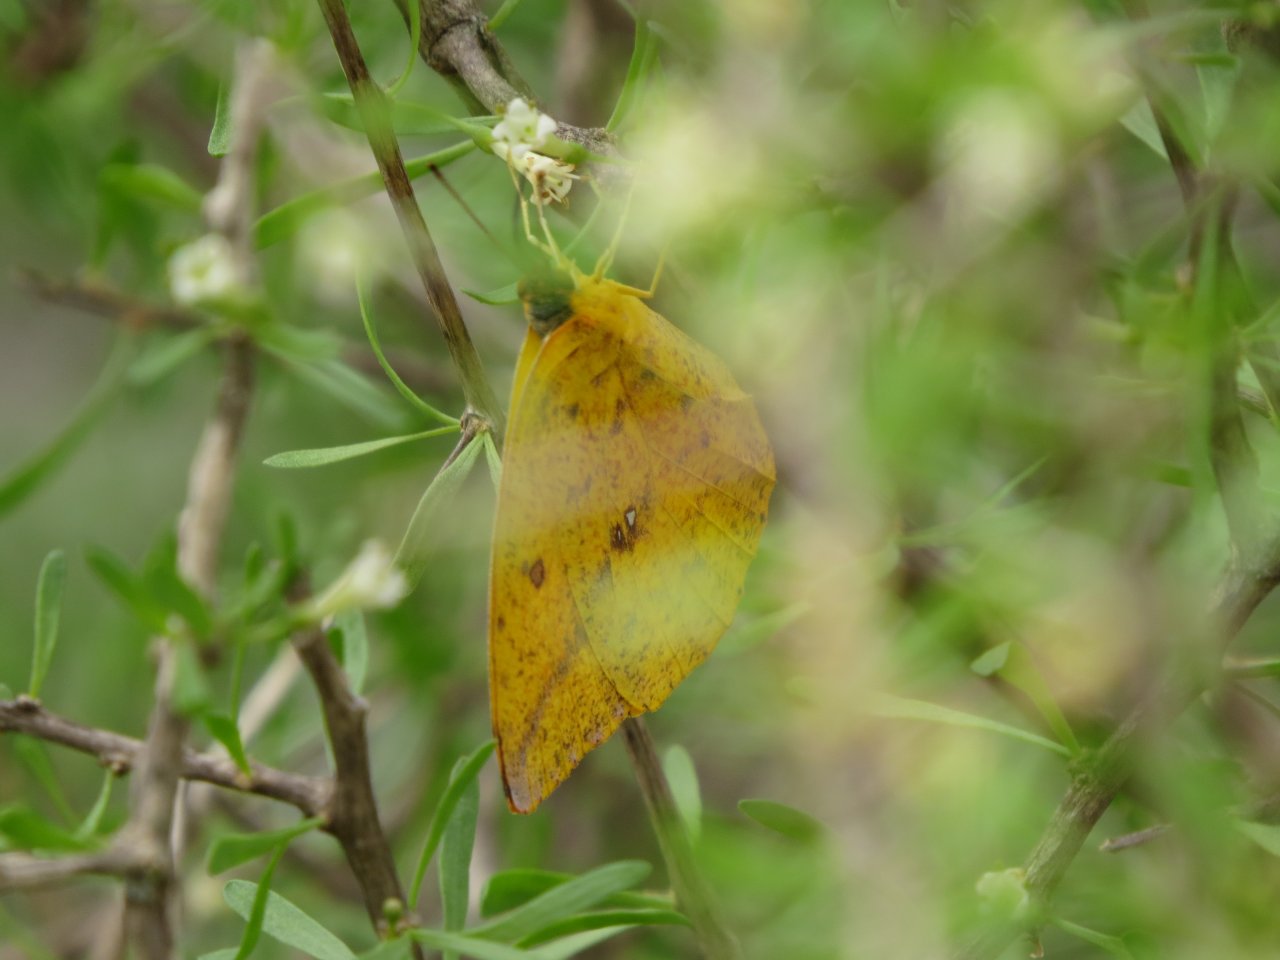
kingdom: Animalia
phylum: Arthropoda
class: Insecta
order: Lepidoptera
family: Pieridae
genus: Phoebis
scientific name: Phoebis sennae
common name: Cloudless Sulphur
